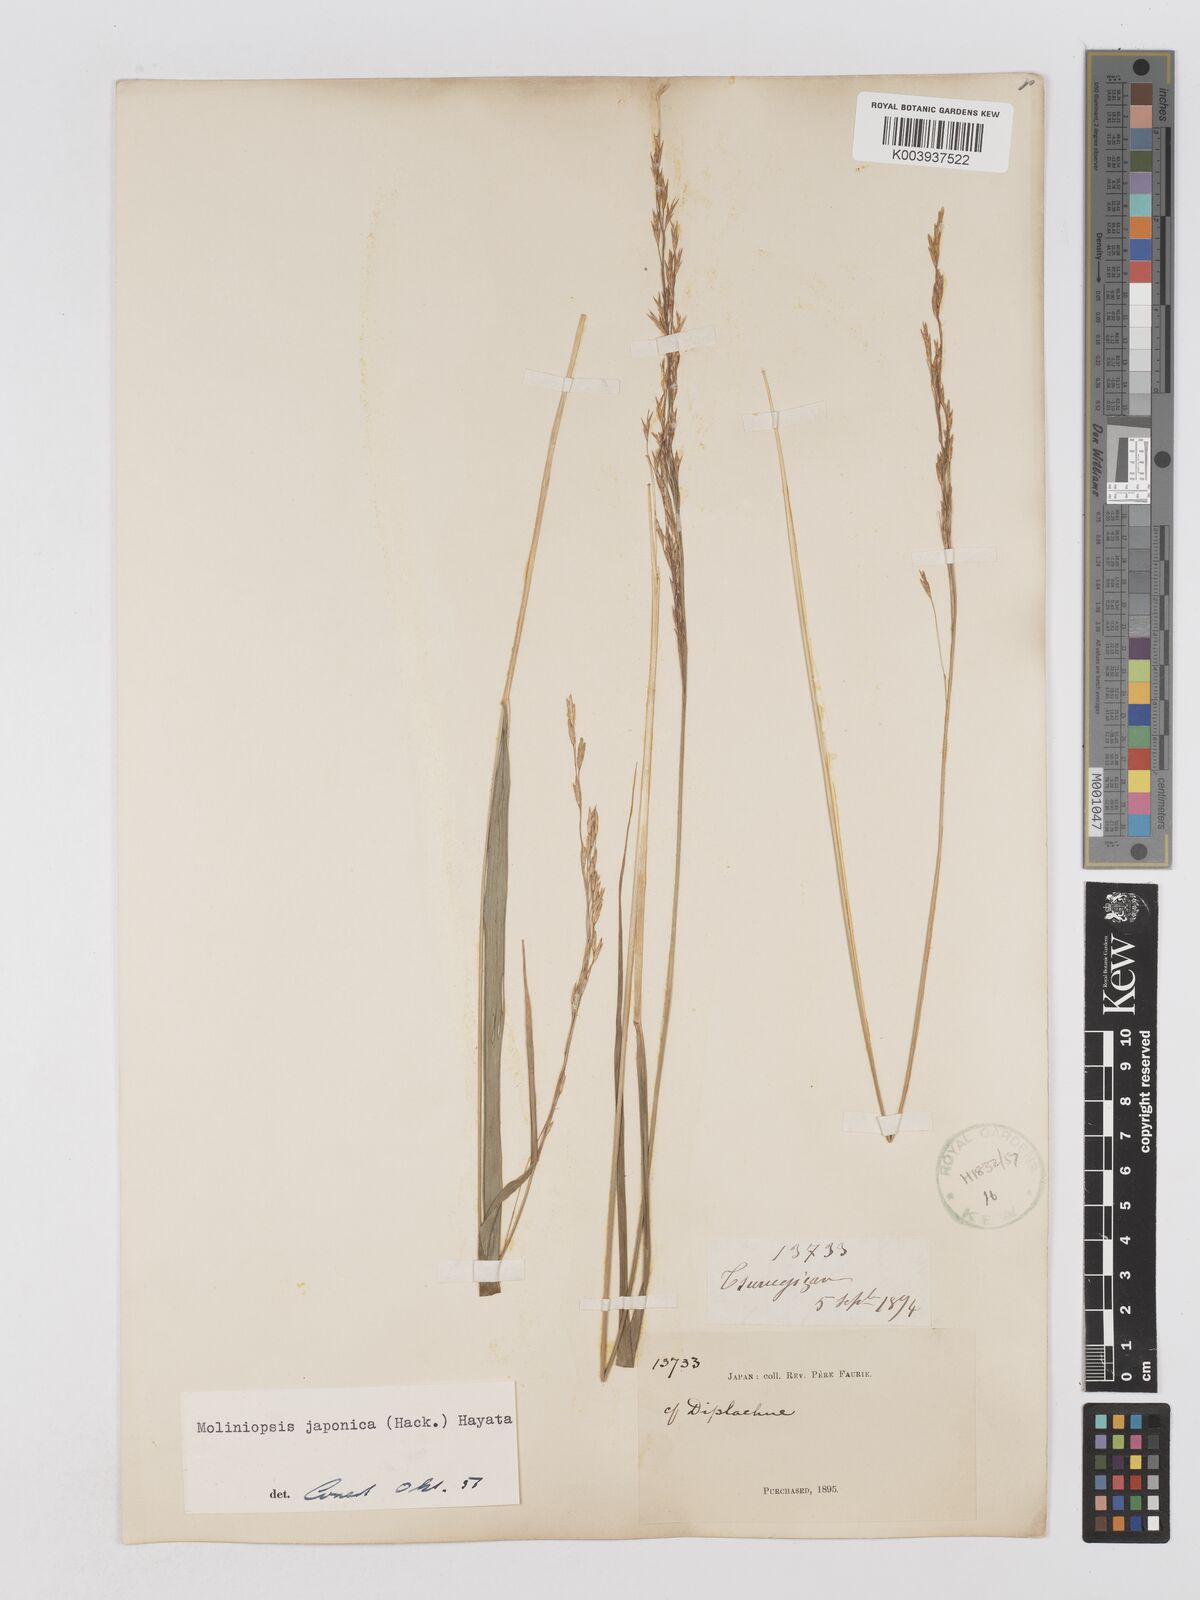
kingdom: Plantae
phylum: Tracheophyta
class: Liliopsida
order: Poales
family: Poaceae
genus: Moliniopsis
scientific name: Moliniopsis japonica
